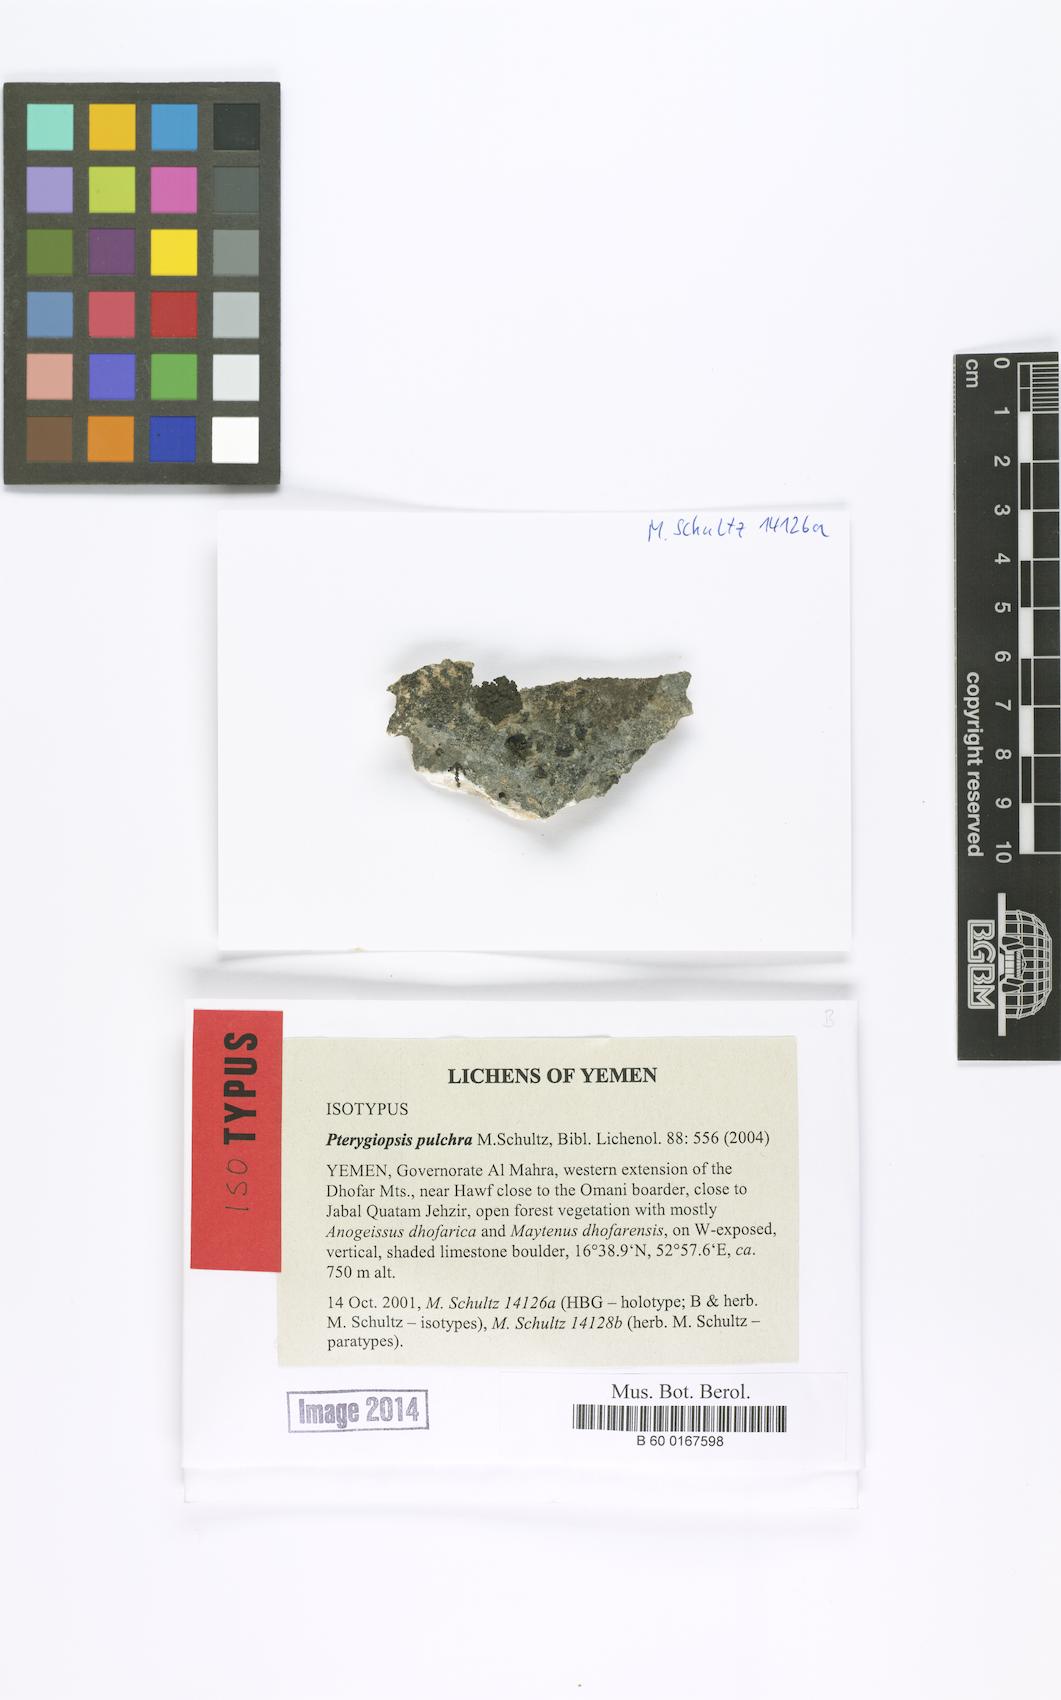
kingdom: Fungi
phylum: Ascomycota
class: Lichinomycetes
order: Lichinales
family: Lichinaceae
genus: Pterygiopsis
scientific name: Pterygiopsis pulchra
